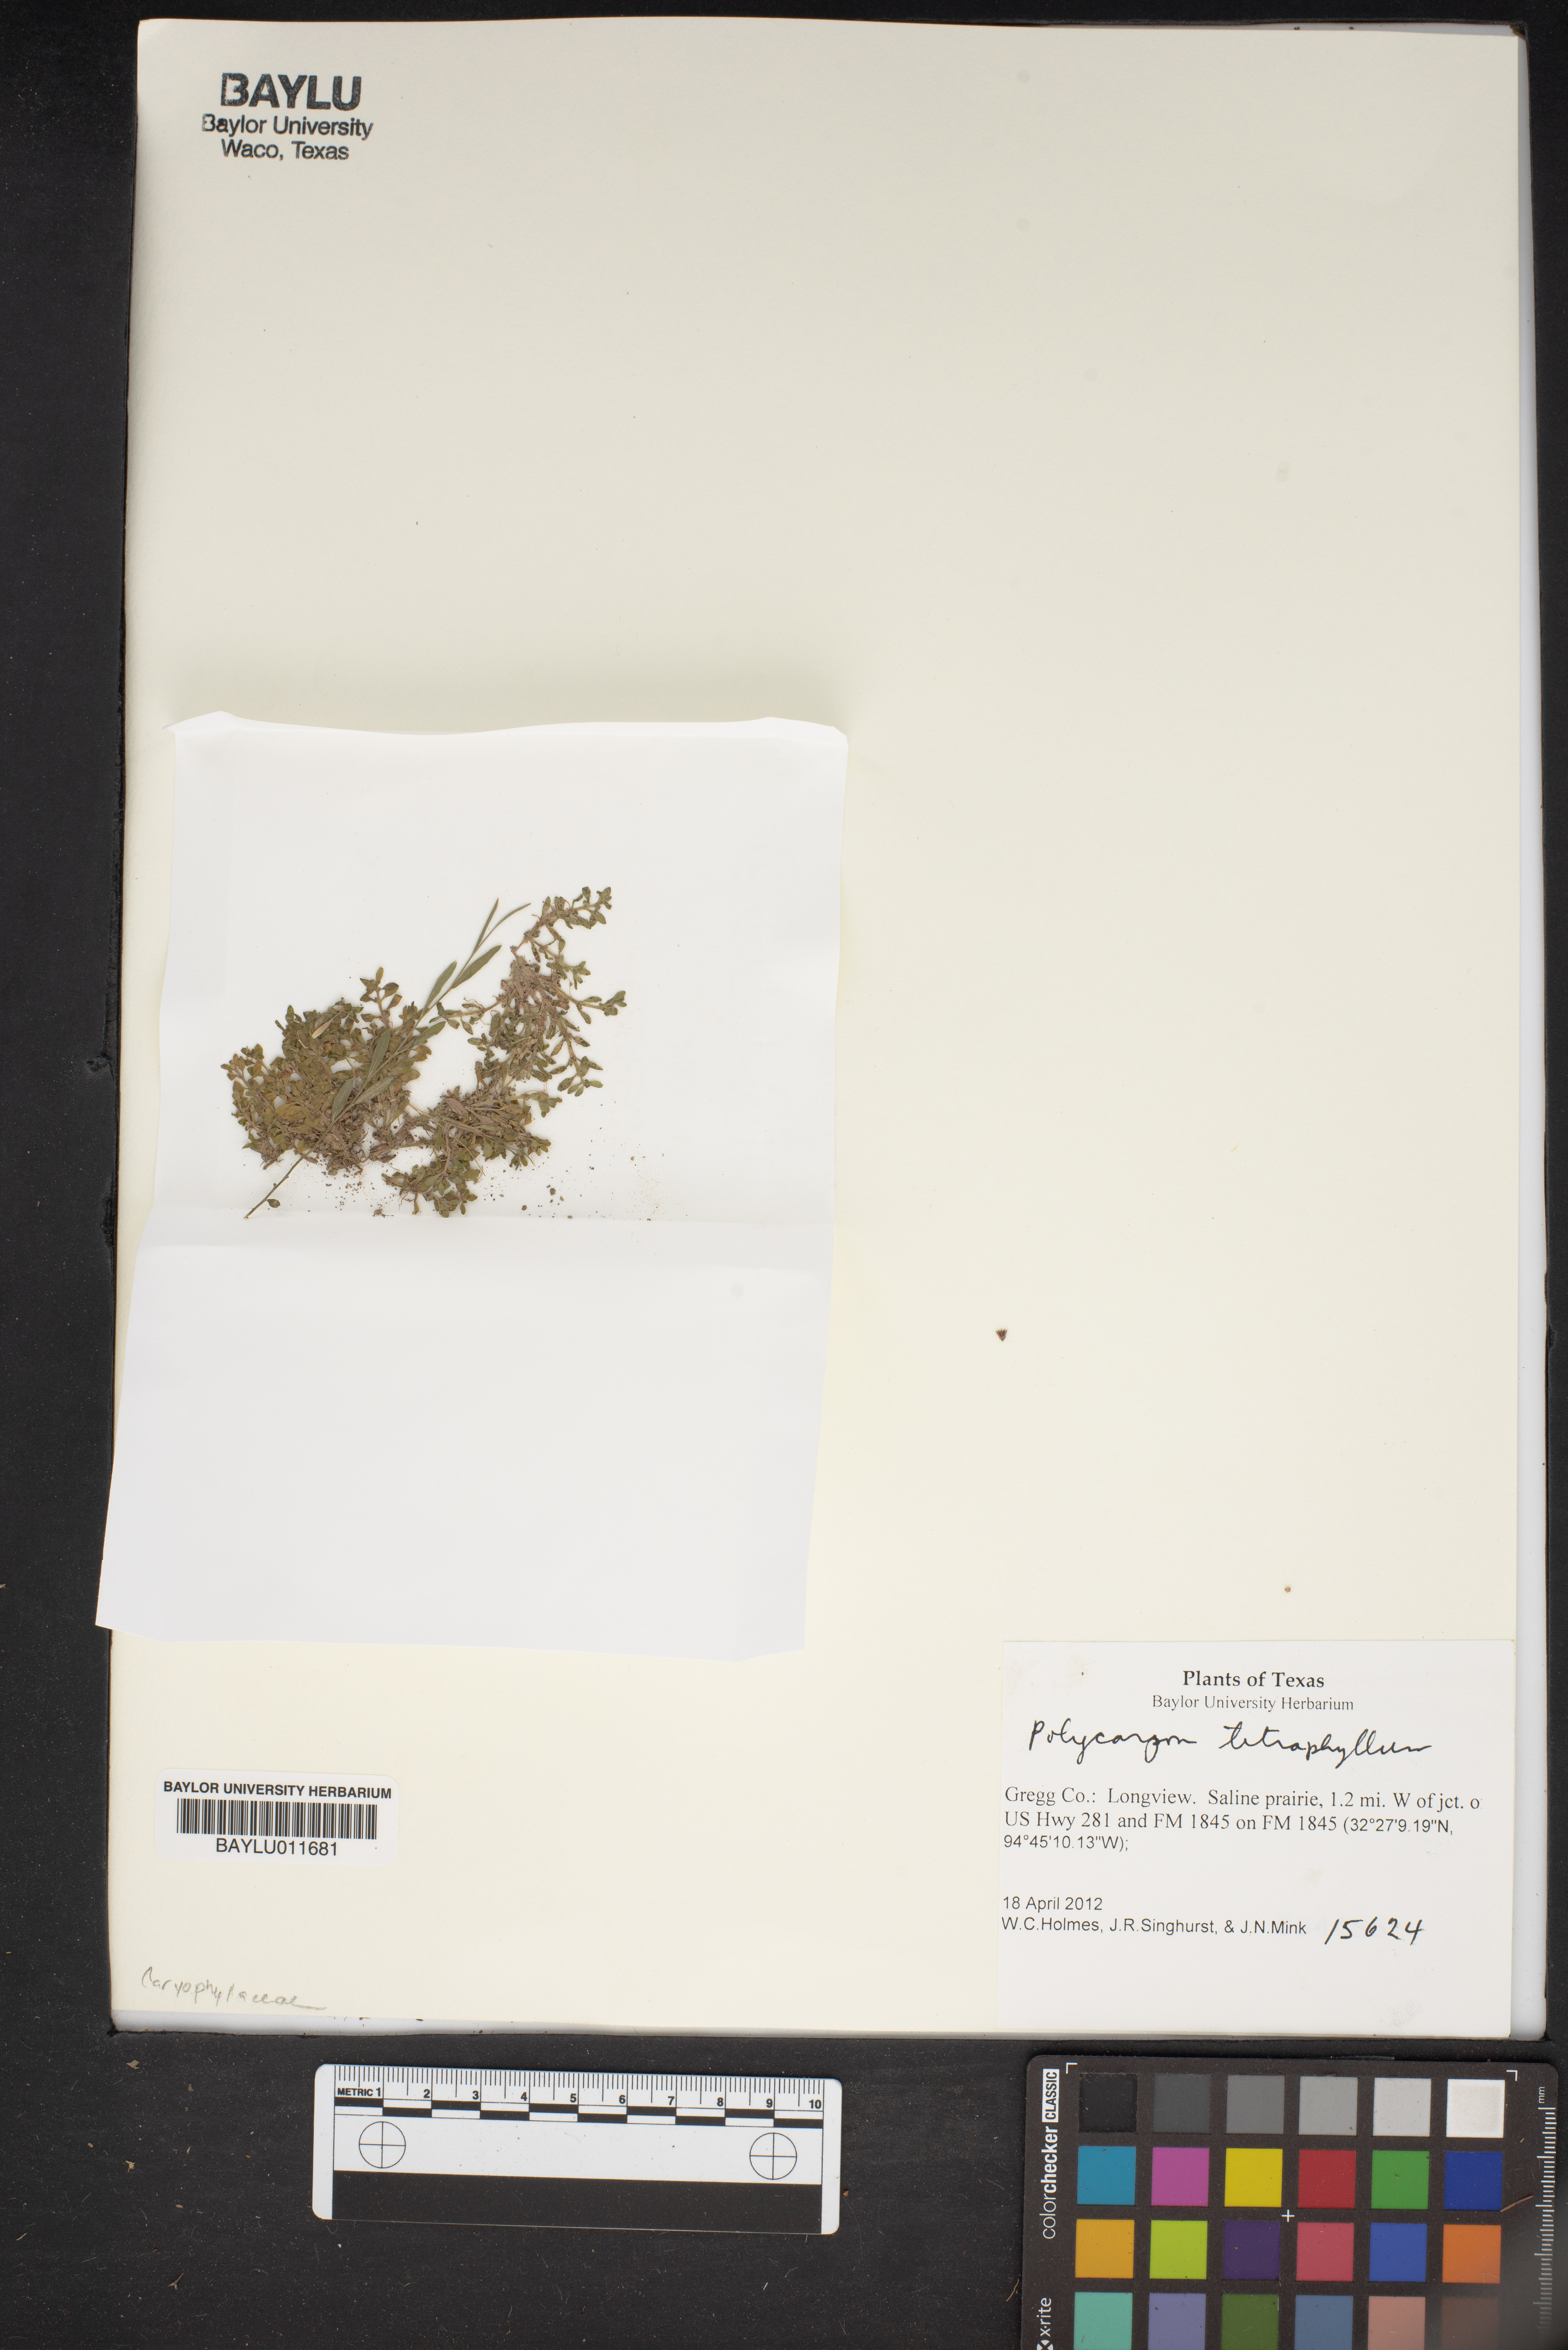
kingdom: Plantae
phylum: Tracheophyta
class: Magnoliopsida
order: Caryophyllales
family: Caryophyllaceae
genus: Polycarpon
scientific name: Polycarpon tetraphyllum
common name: Four-leaved all-seed
